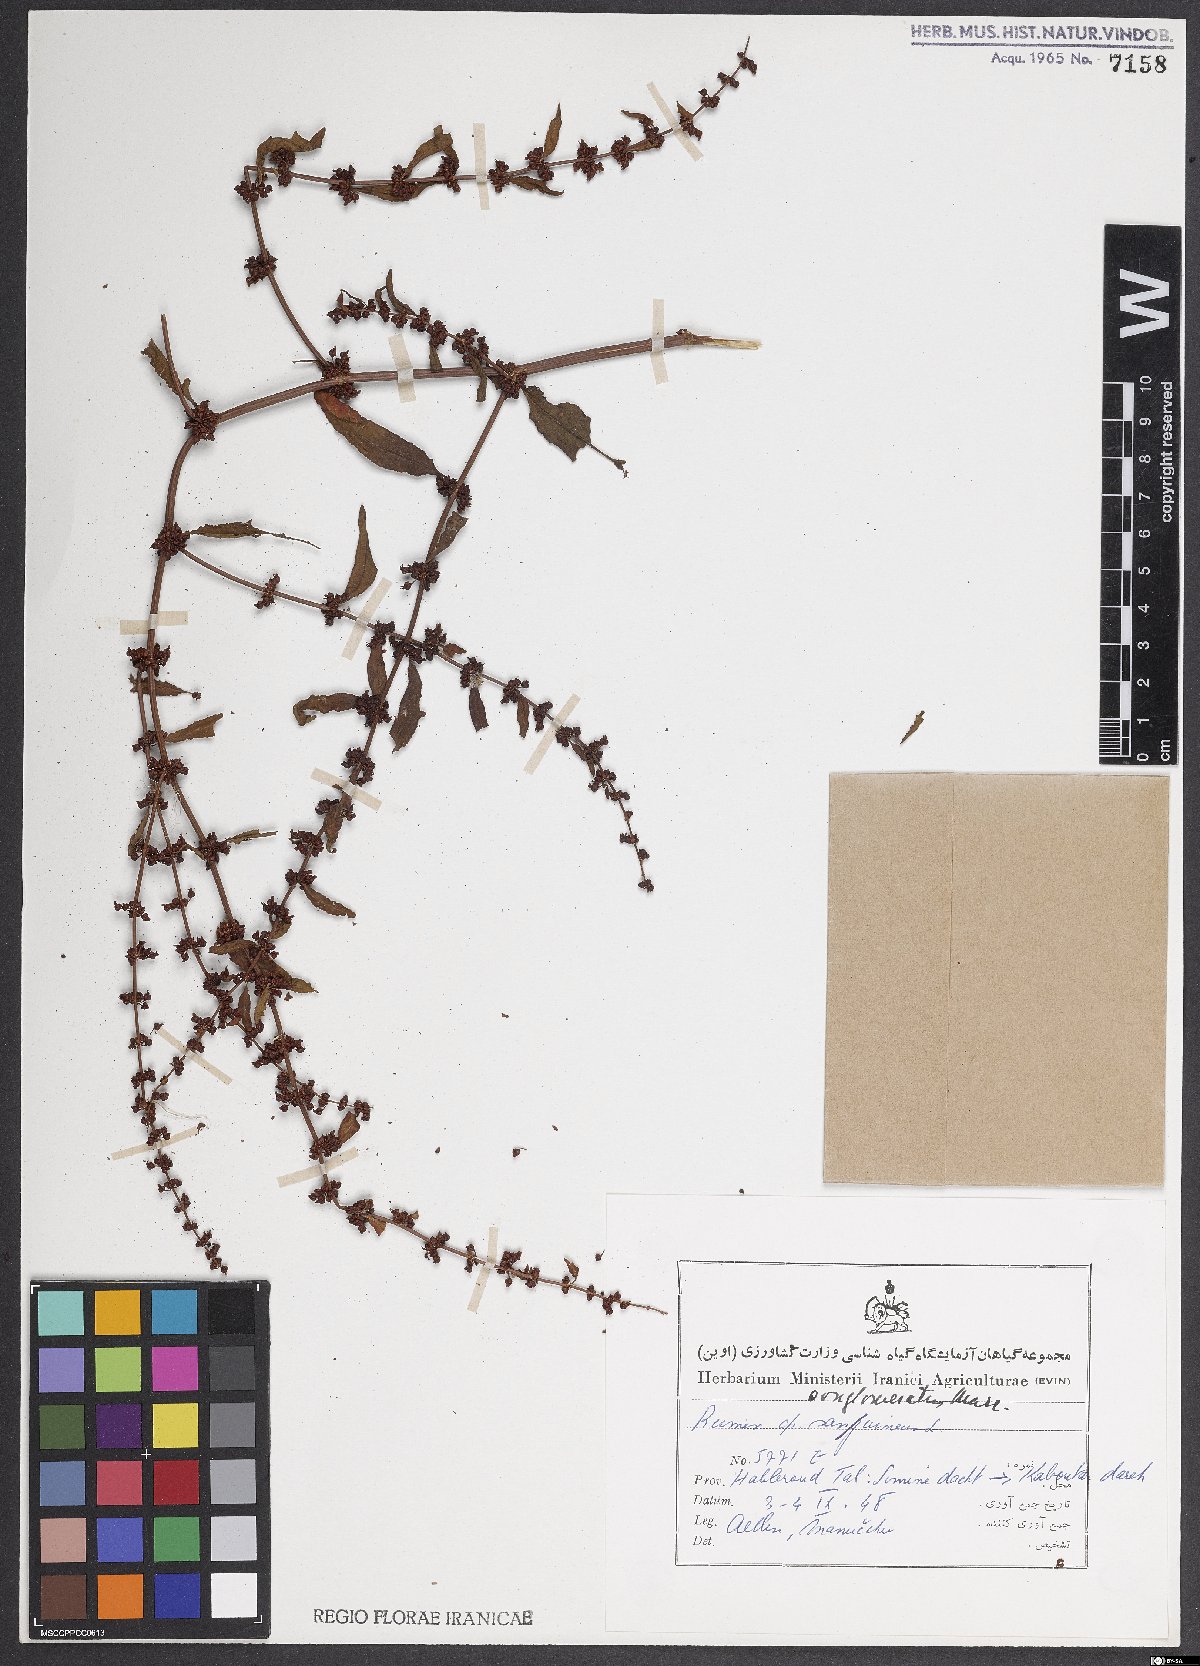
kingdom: Plantae
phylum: Tracheophyta
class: Magnoliopsida
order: Caryophyllales
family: Polygonaceae
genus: Rumex
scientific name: Rumex conglomeratus
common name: Clustered dock
